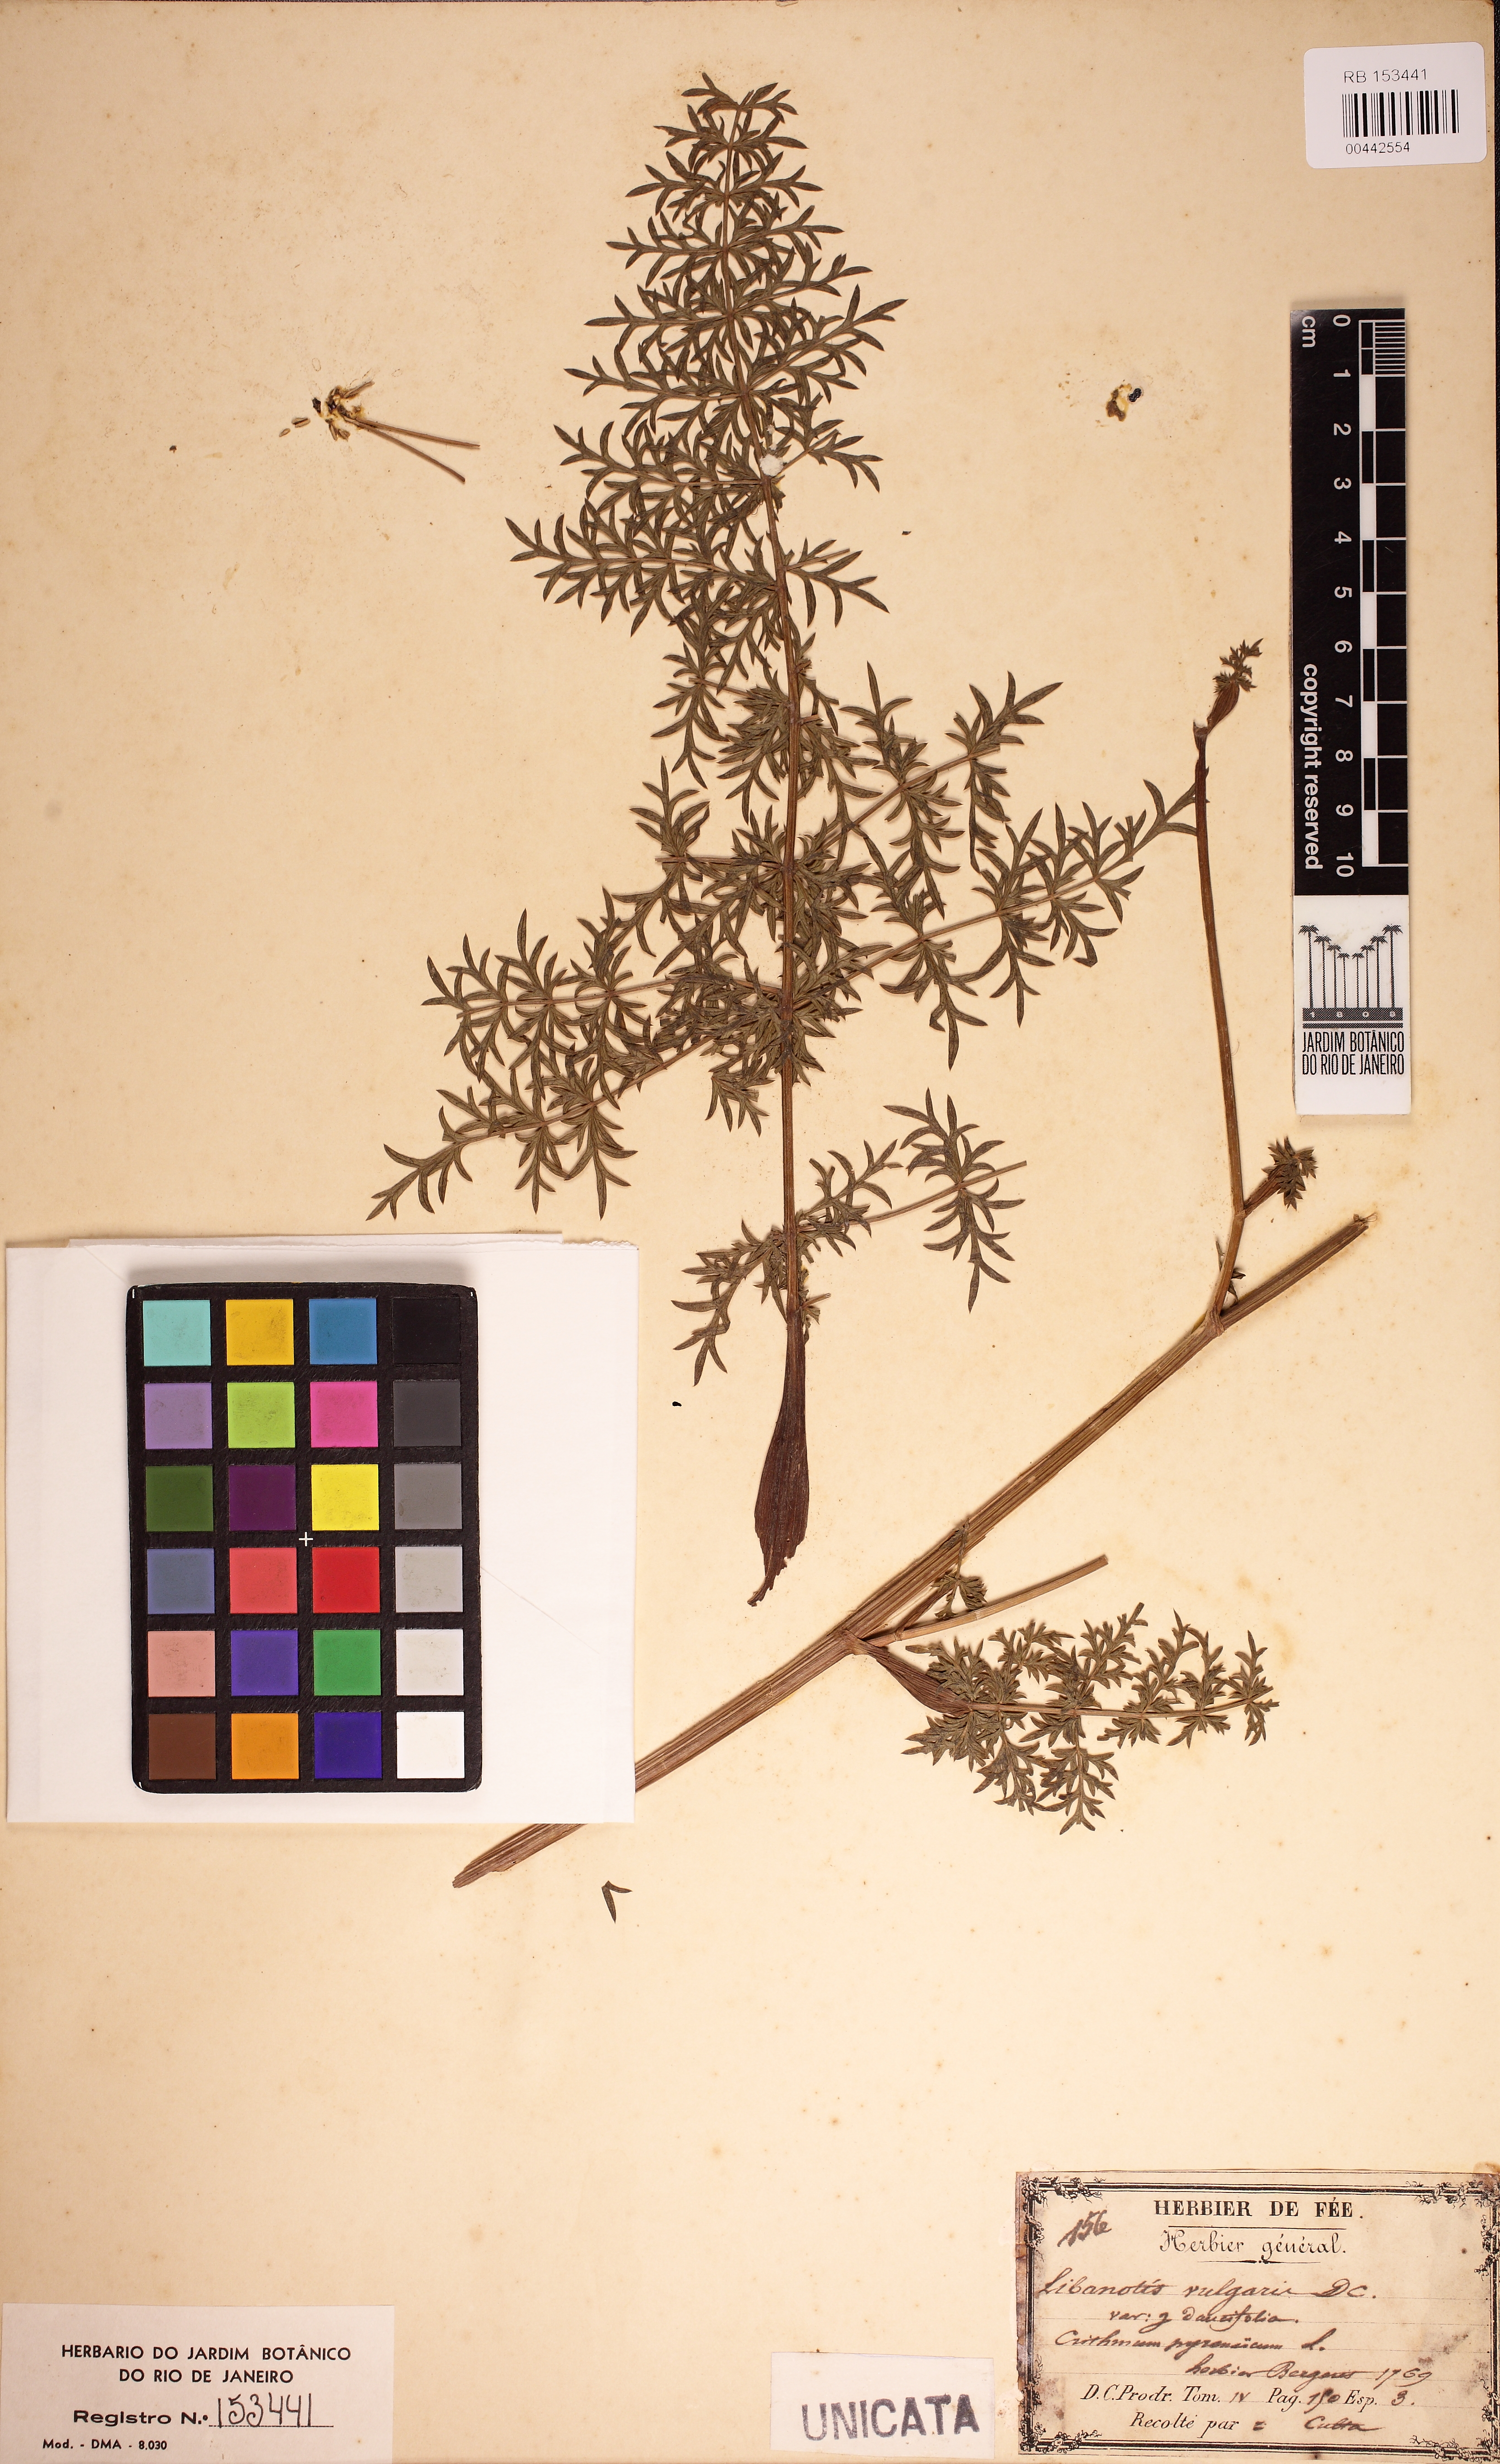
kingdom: Plantae
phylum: Tracheophyta
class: Magnoliopsida
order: Apiales
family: Apiaceae
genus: Seseli
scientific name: Seseli libanotis
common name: Mooncarrot
